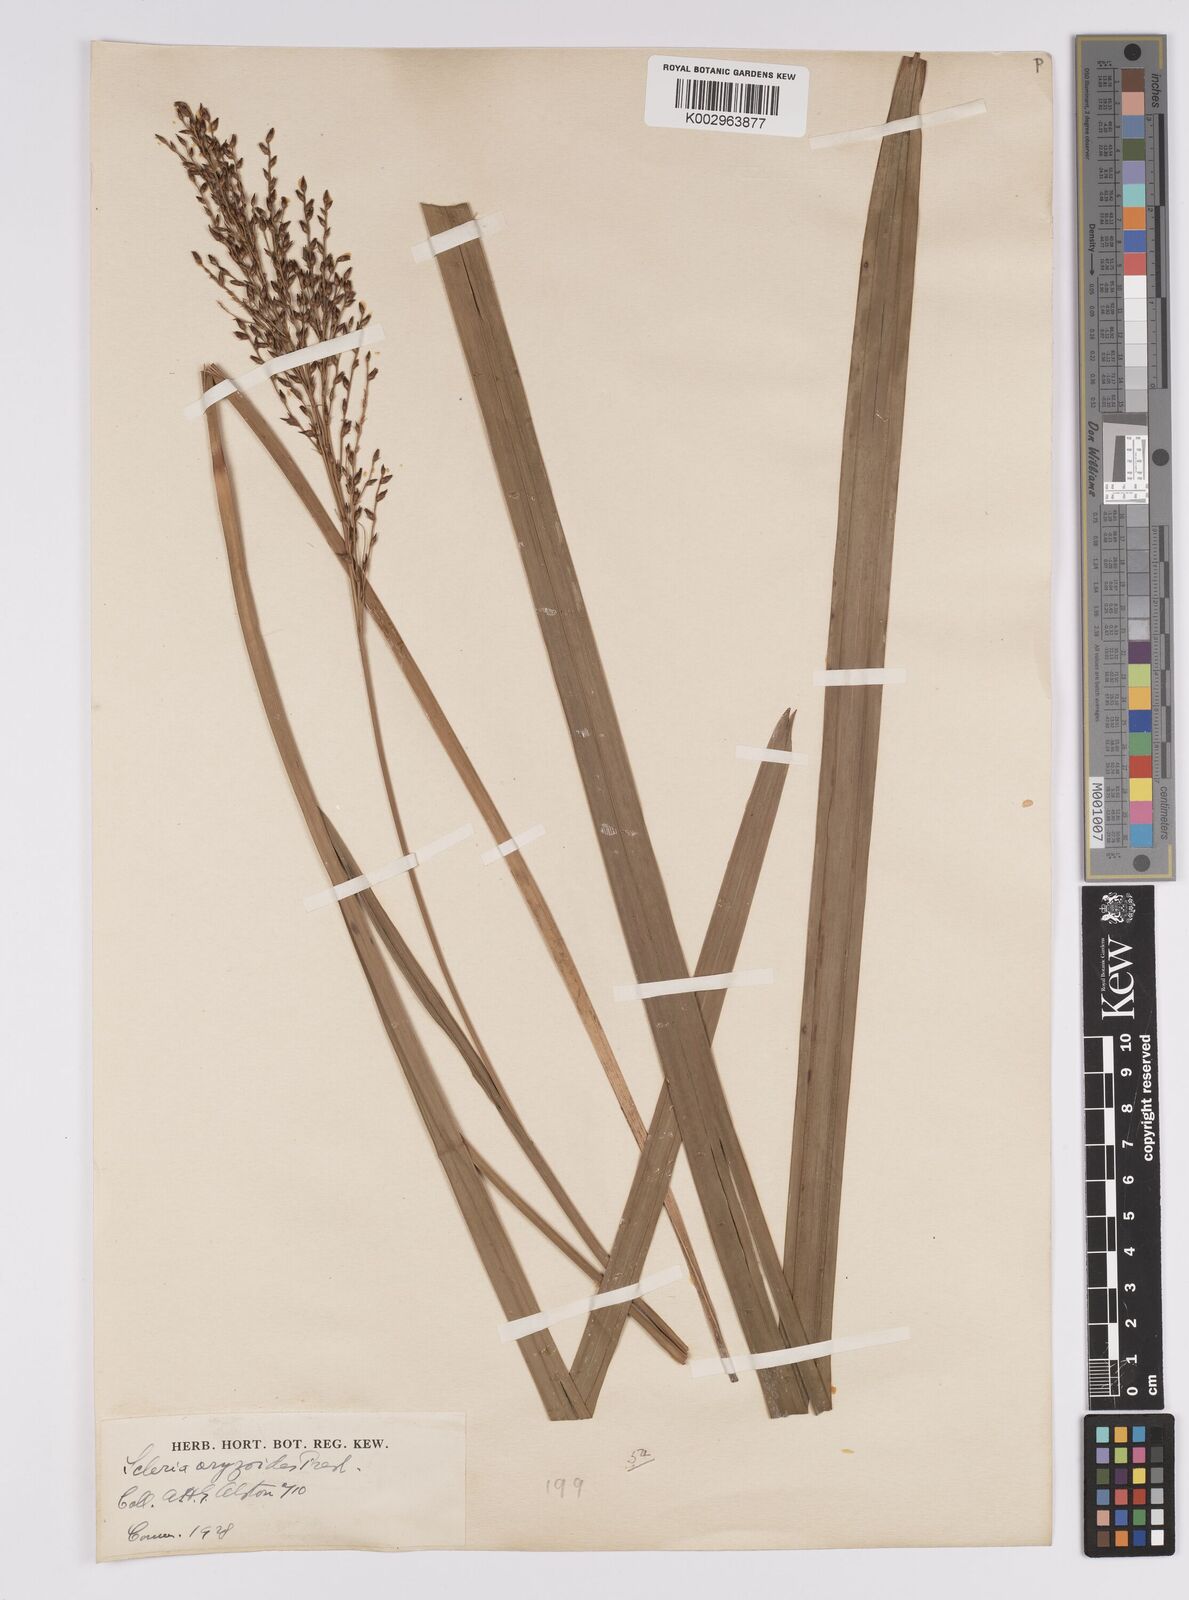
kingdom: Plantae
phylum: Tracheophyta
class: Liliopsida
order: Poales
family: Cyperaceae
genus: Scleria
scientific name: Scleria poiformis
